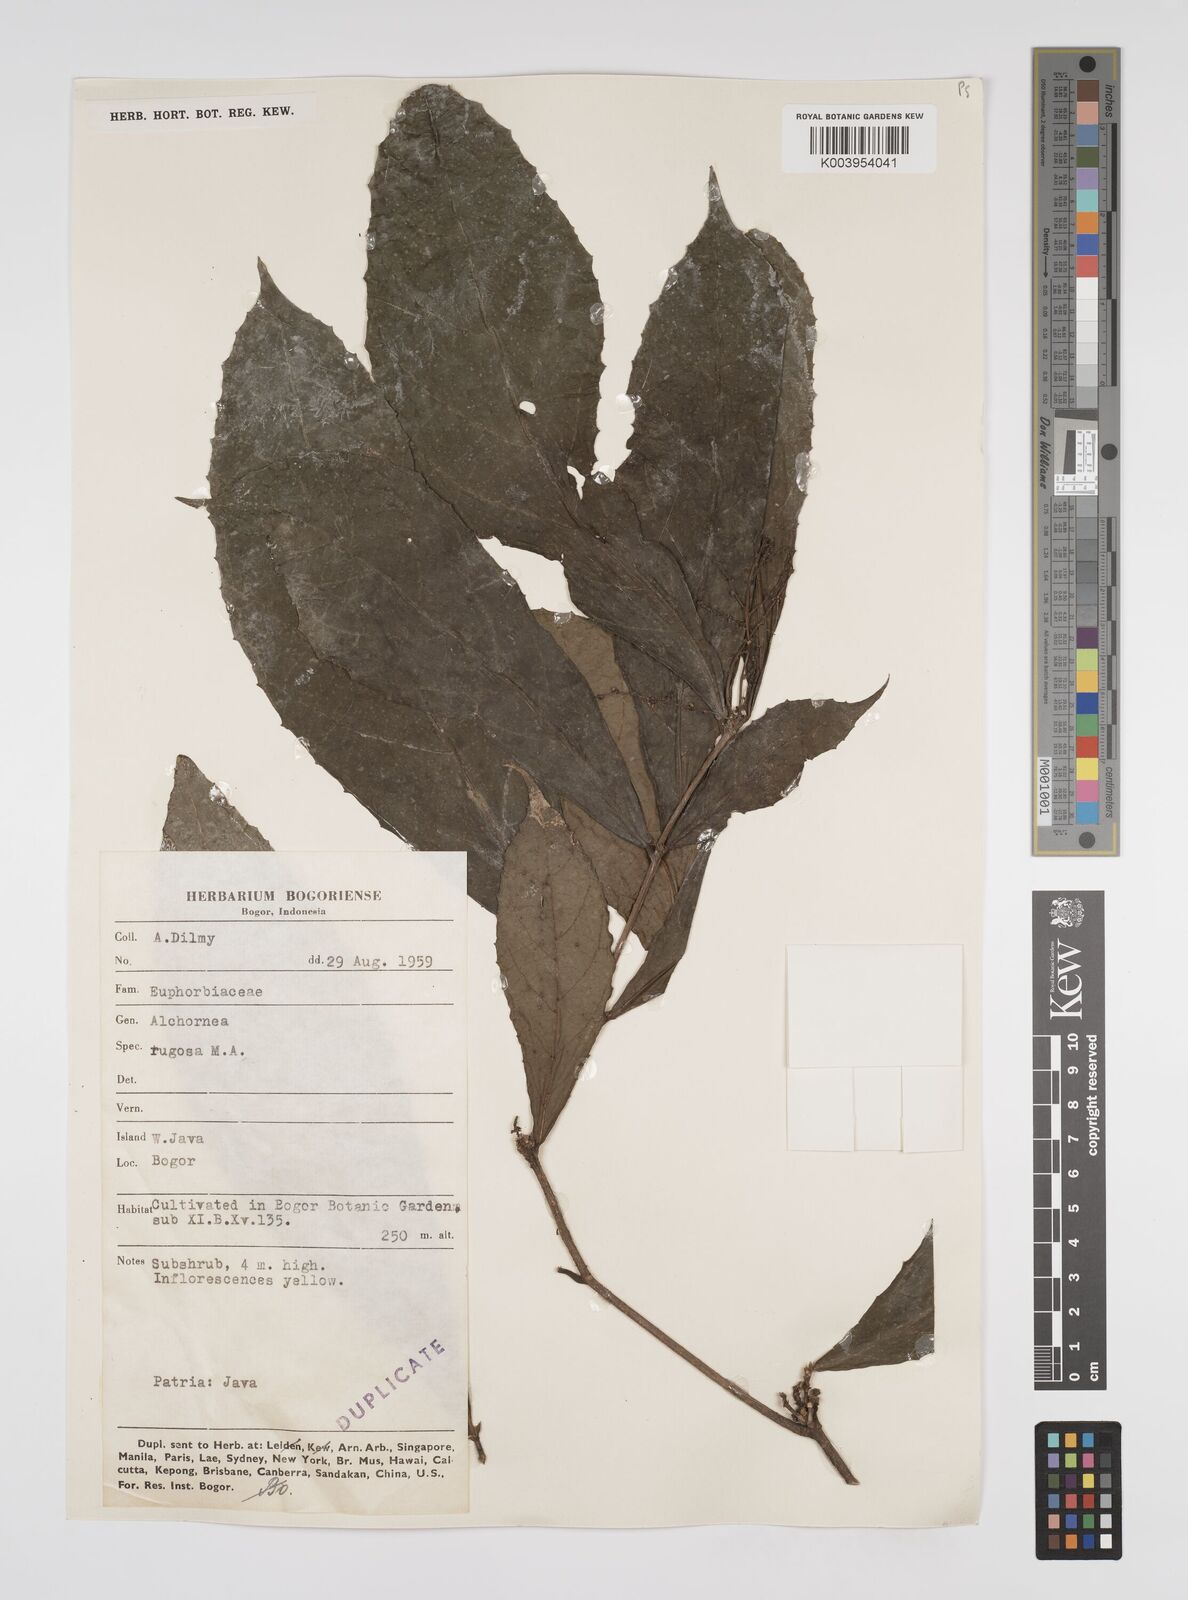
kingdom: Plantae
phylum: Tracheophyta
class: Magnoliopsida
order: Malpighiales
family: Euphorbiaceae
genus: Alchornea
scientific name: Alchornea rugosa
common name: Alchorntree
